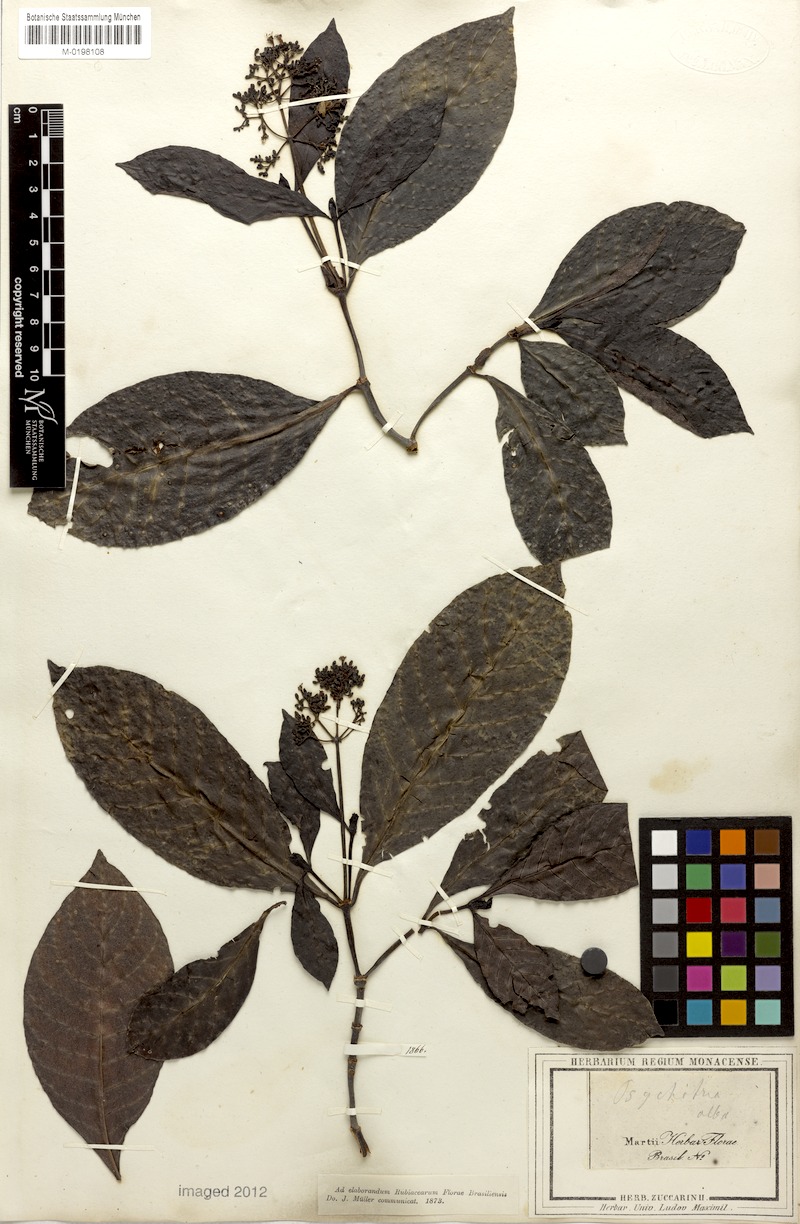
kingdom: Plantae
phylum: Tracheophyta
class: Magnoliopsida
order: Gentianales
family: Rubiaceae
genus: Psychotria
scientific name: Psychotria alba
